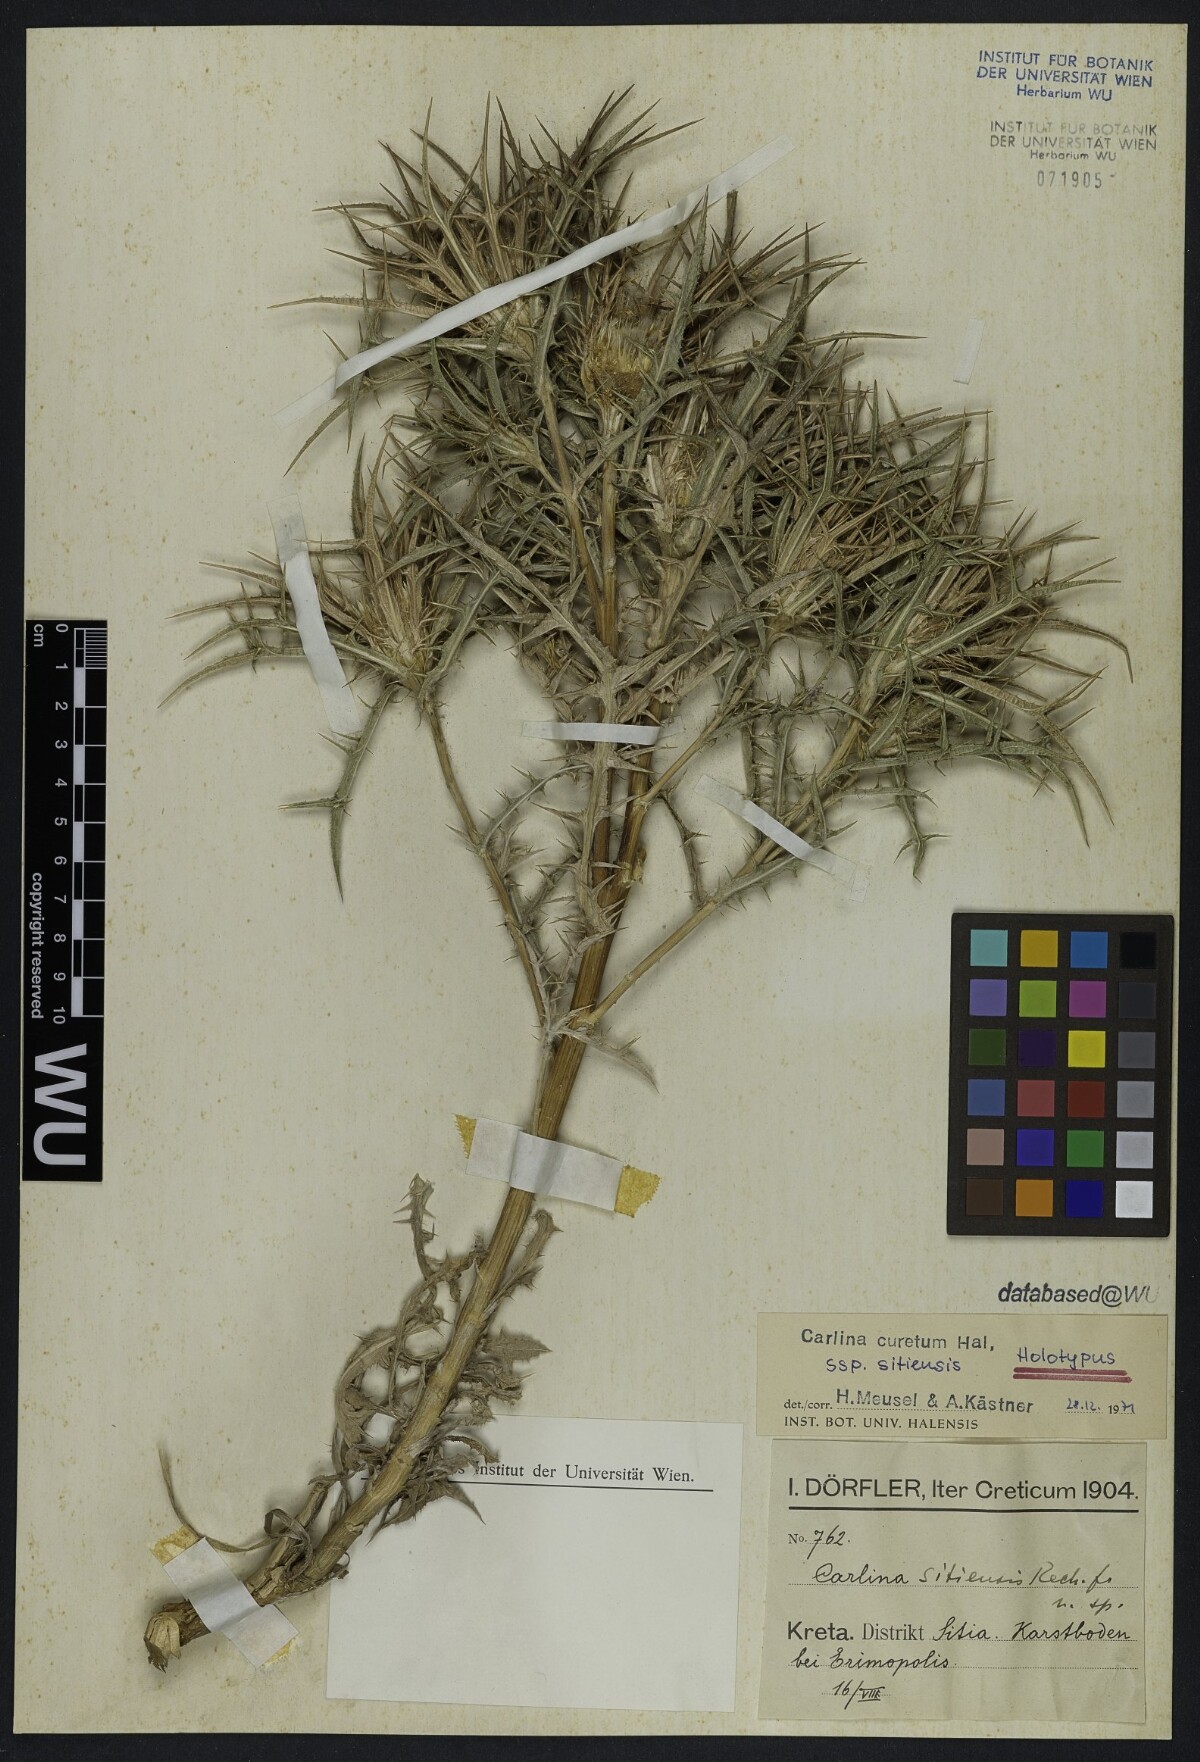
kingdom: Plantae
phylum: Tracheophyta
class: Magnoliopsida
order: Asterales
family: Asteraceae
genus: Carlina
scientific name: Carlina sitiensis
